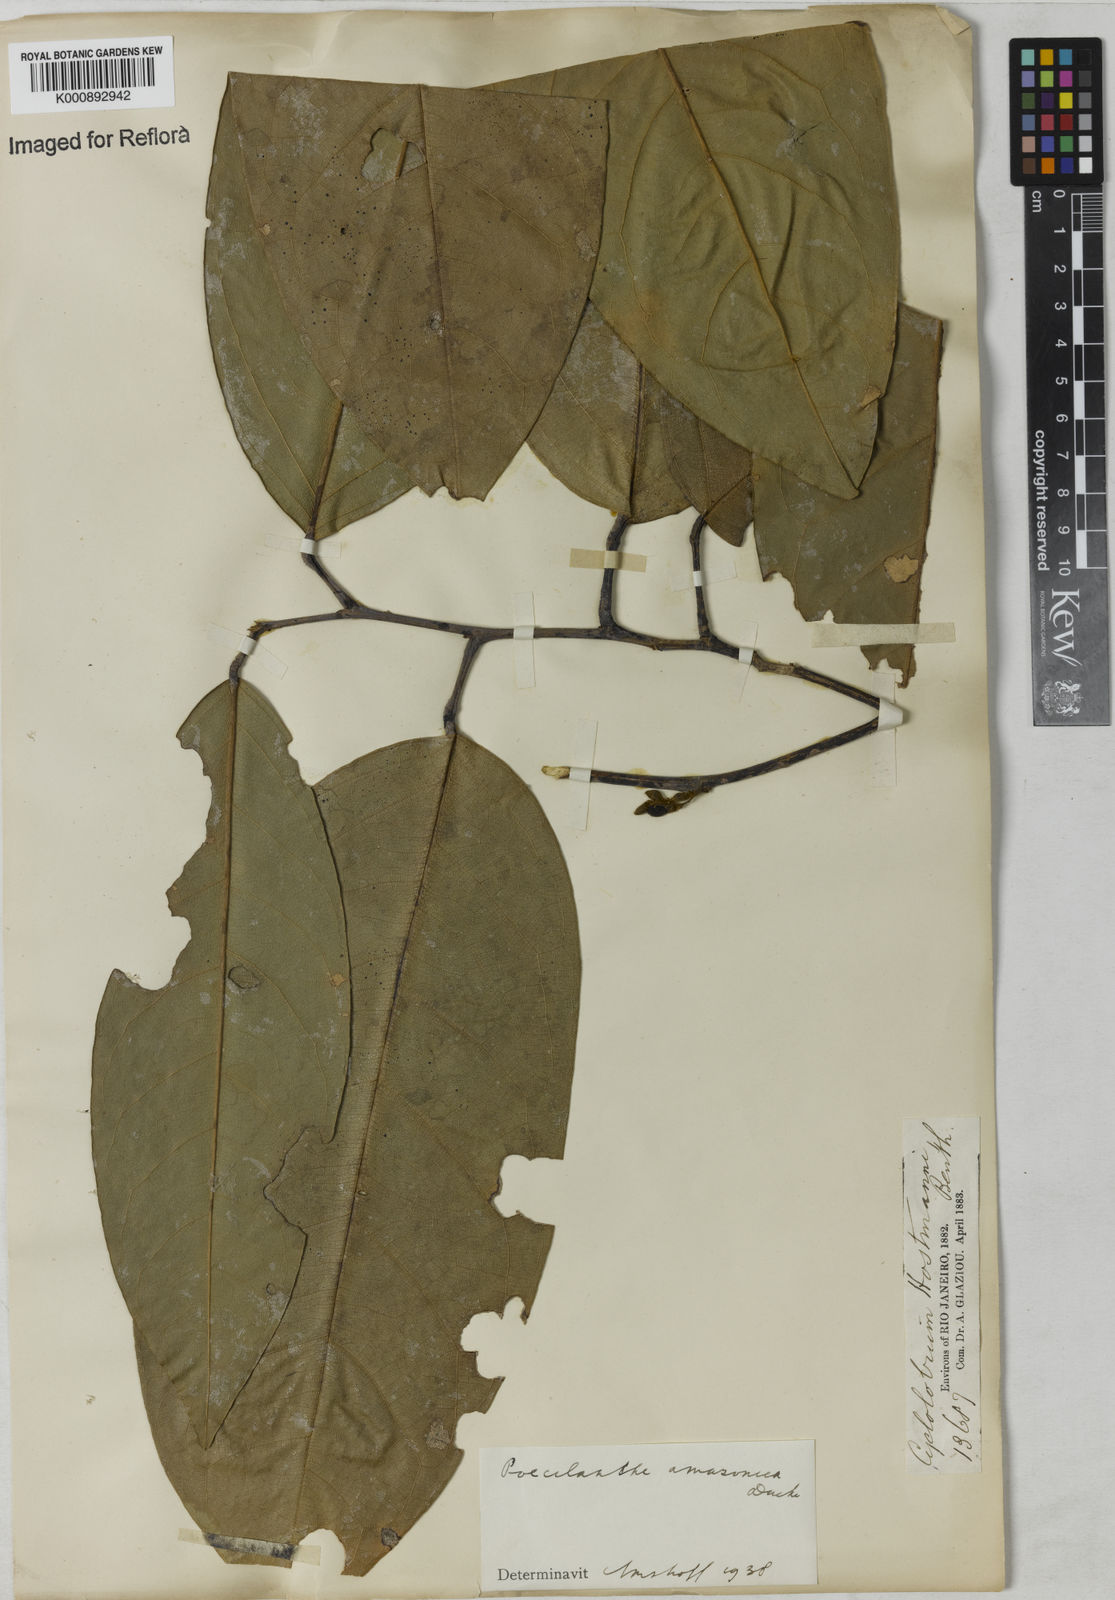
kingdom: Plantae
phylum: Tracheophyta
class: Magnoliopsida
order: Fabales
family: Fabaceae
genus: Limadendron
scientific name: Limadendron amazonicum
